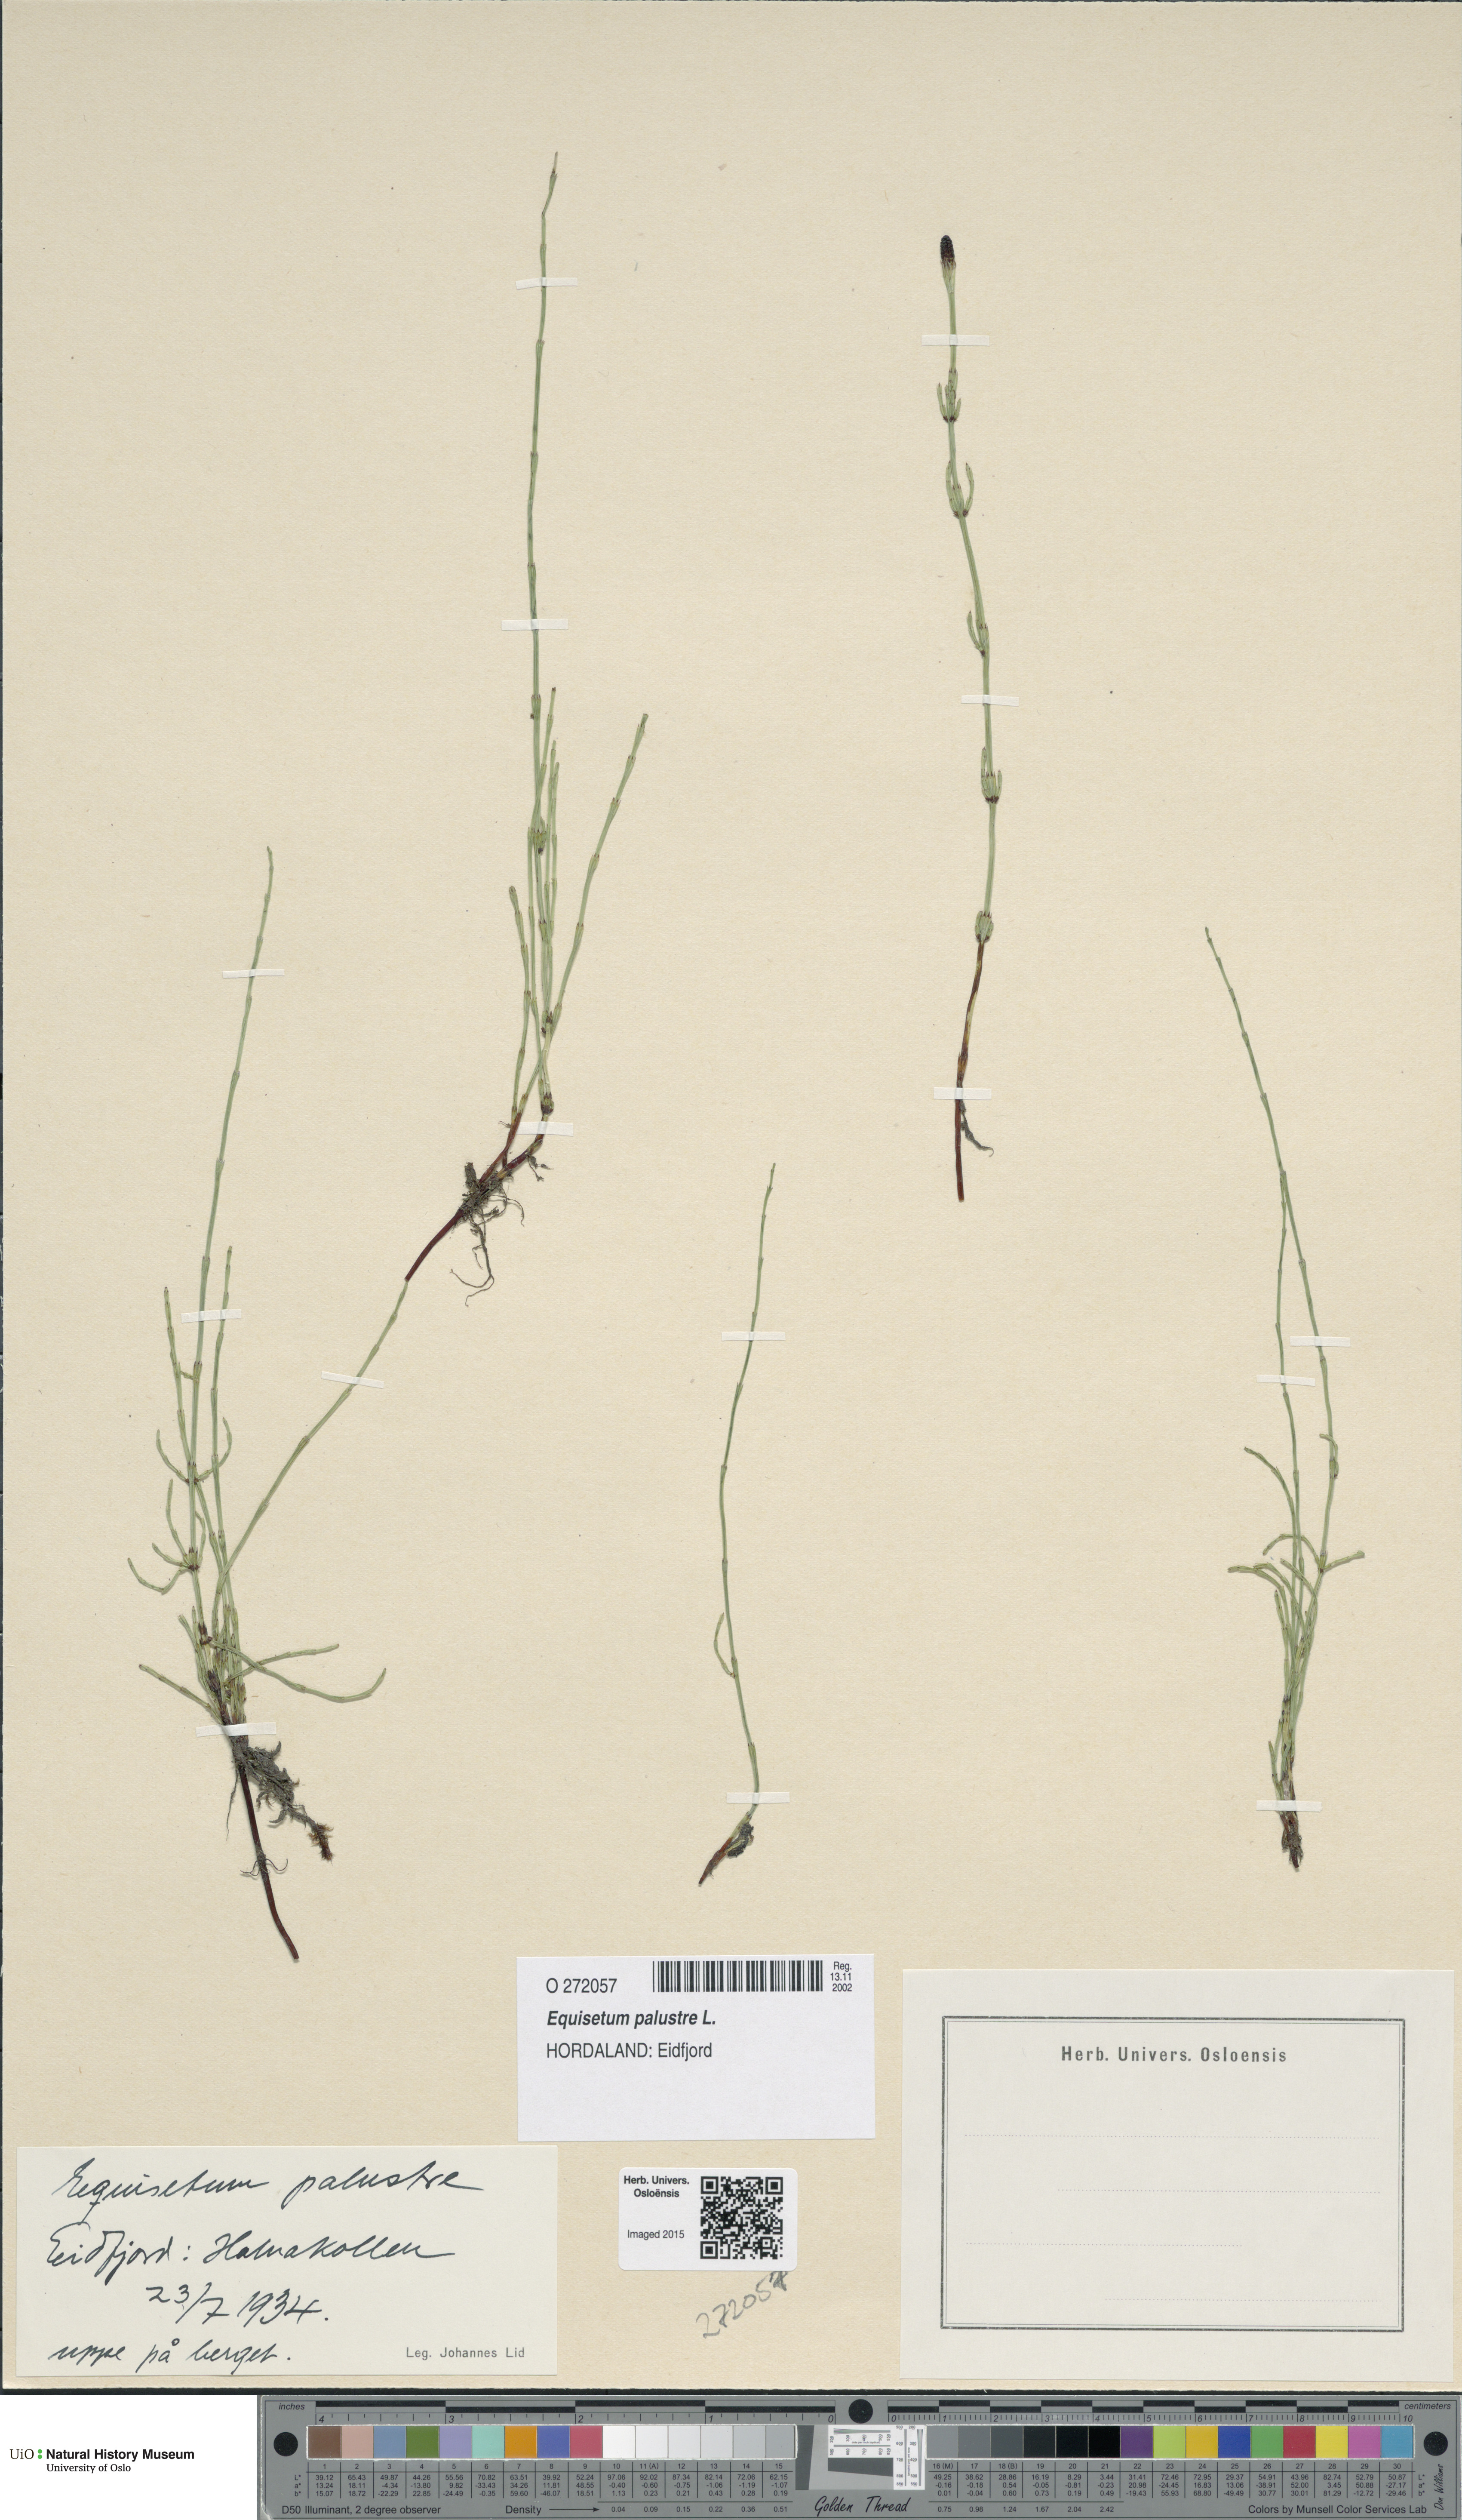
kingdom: Plantae
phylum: Tracheophyta
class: Polypodiopsida
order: Equisetales
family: Equisetaceae
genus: Equisetum
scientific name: Equisetum palustre
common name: Marsh horsetail
